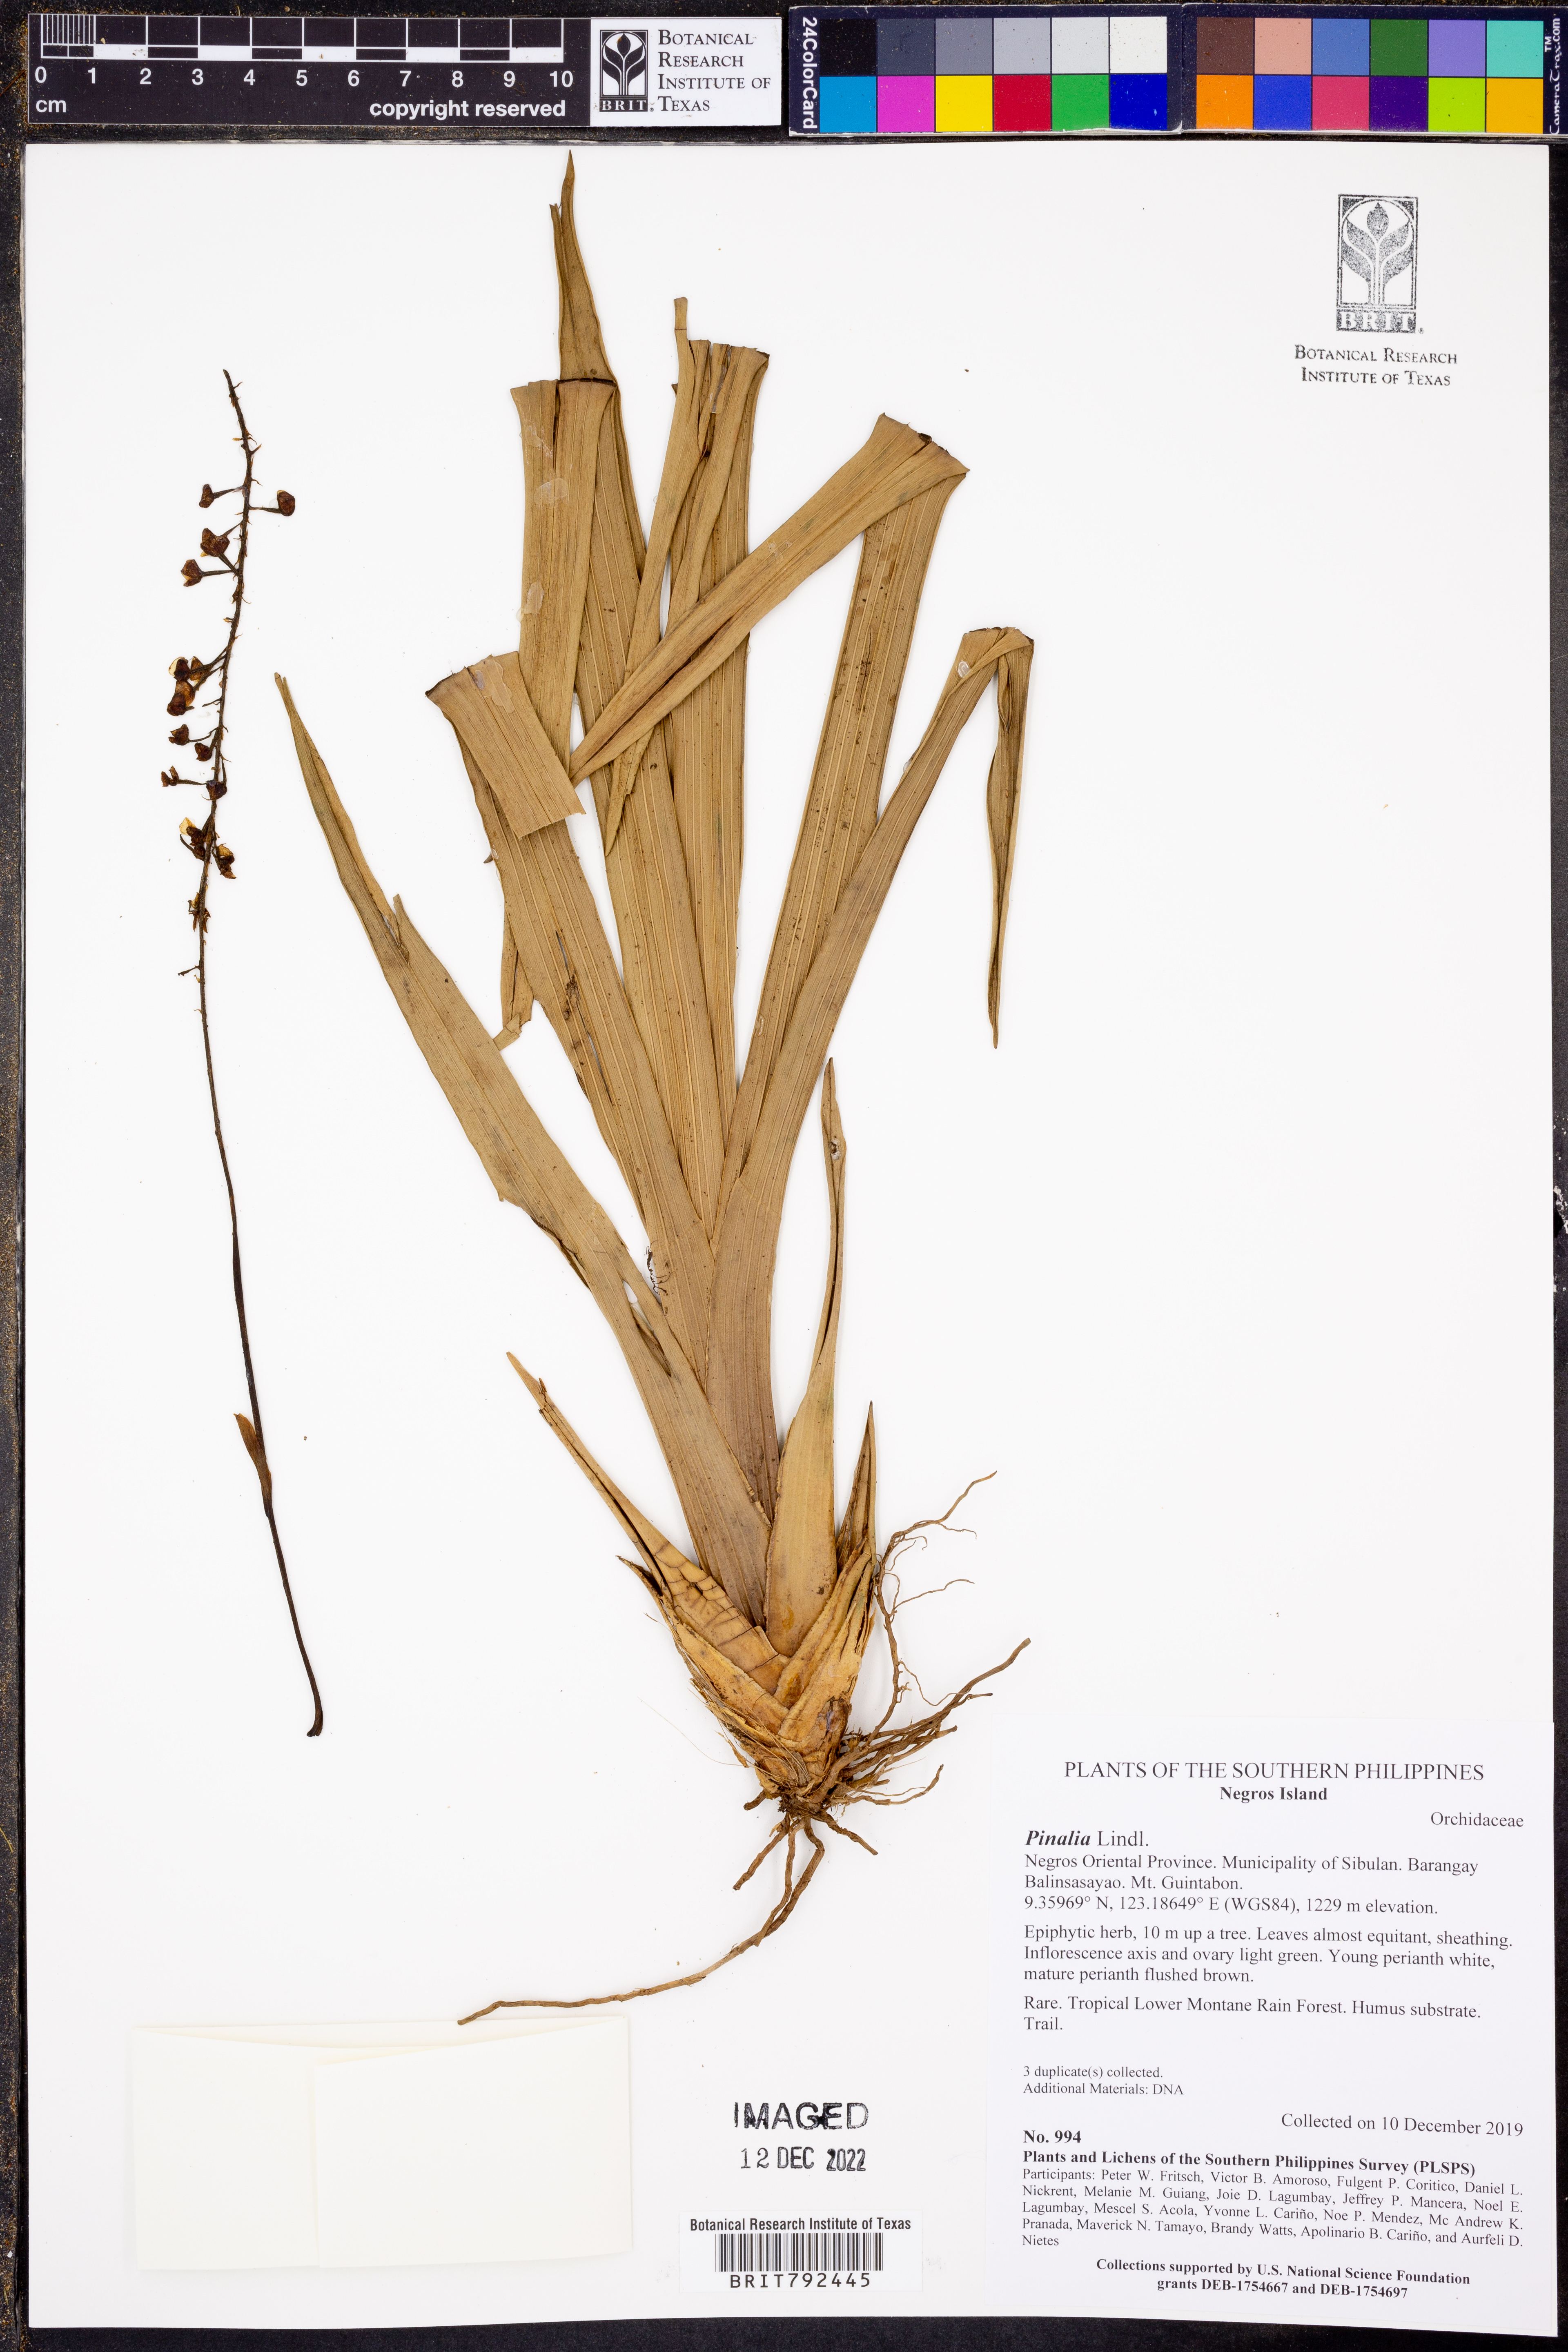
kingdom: Plantae
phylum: Tracheophyta
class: Liliopsida
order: Asparagales
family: Orchidaceae
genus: Pinalia
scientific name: Pinalia
